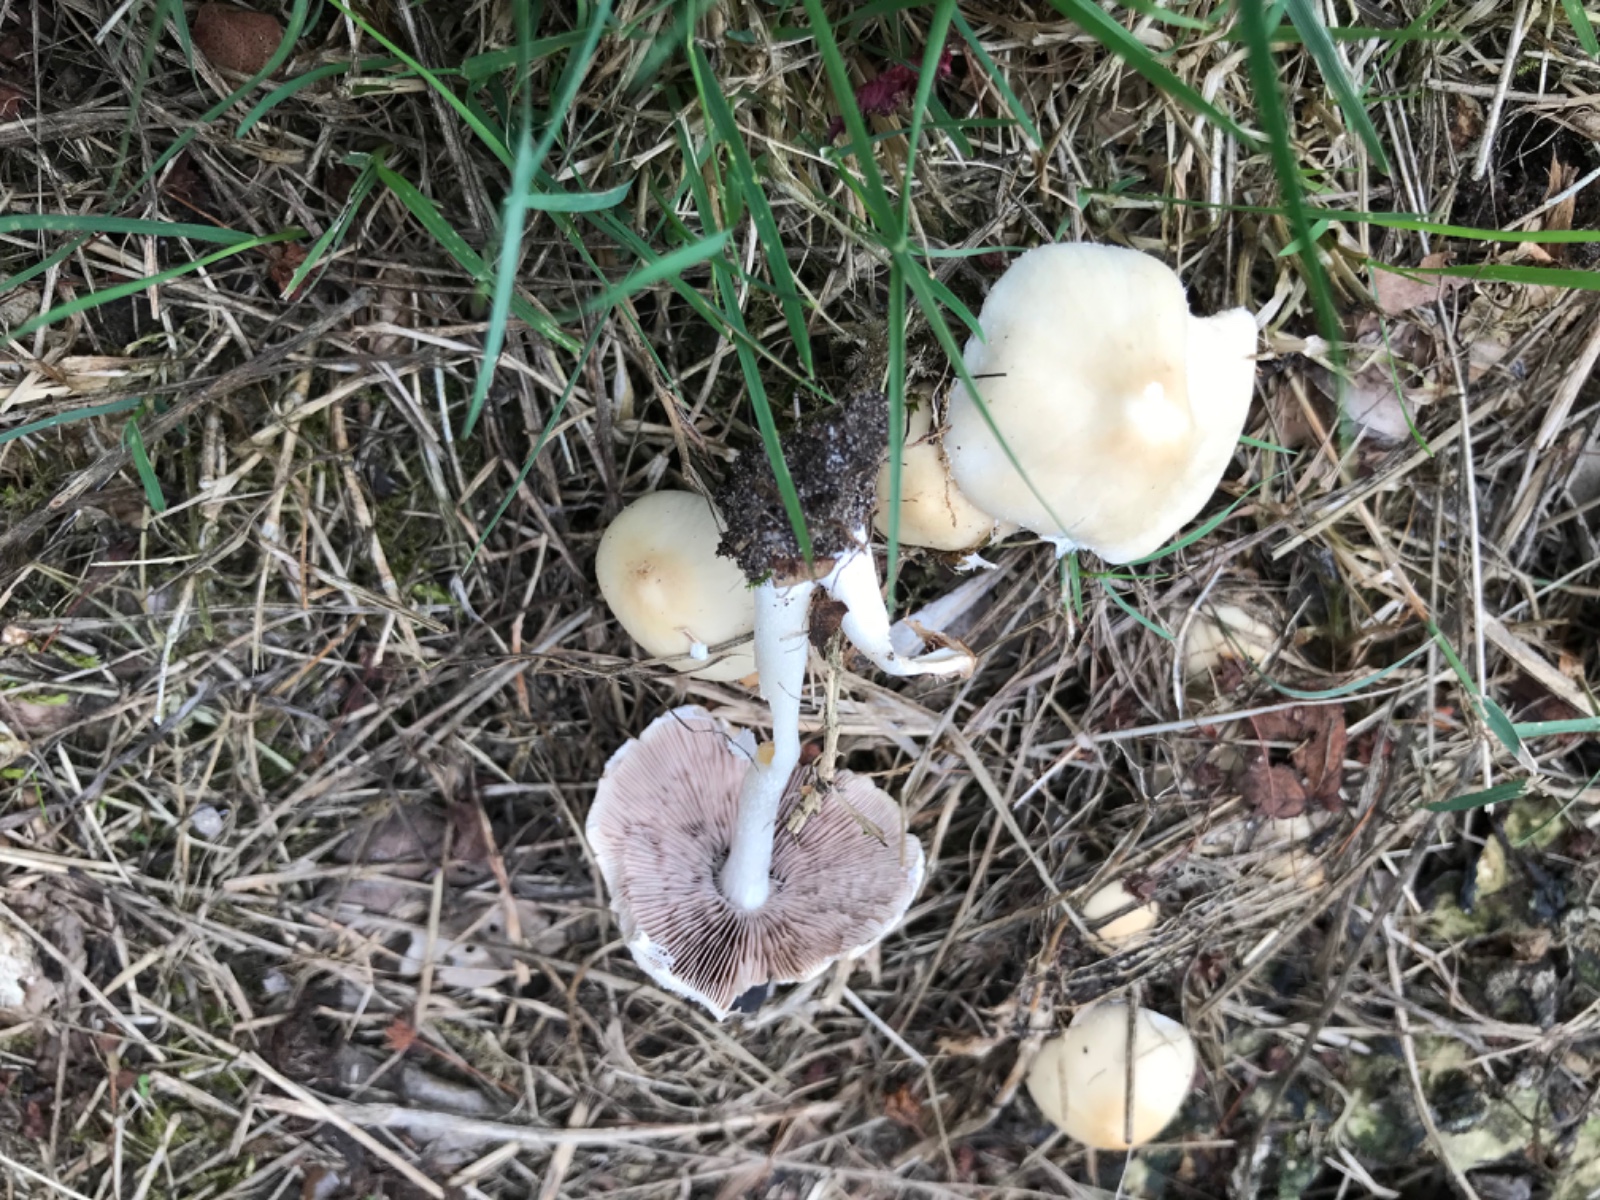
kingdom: Fungi
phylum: Basidiomycota
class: Agaricomycetes
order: Agaricales
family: Psathyrellaceae
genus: Candolleomyces
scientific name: Candolleomyces candolleanus
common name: Candolles mørkhat
